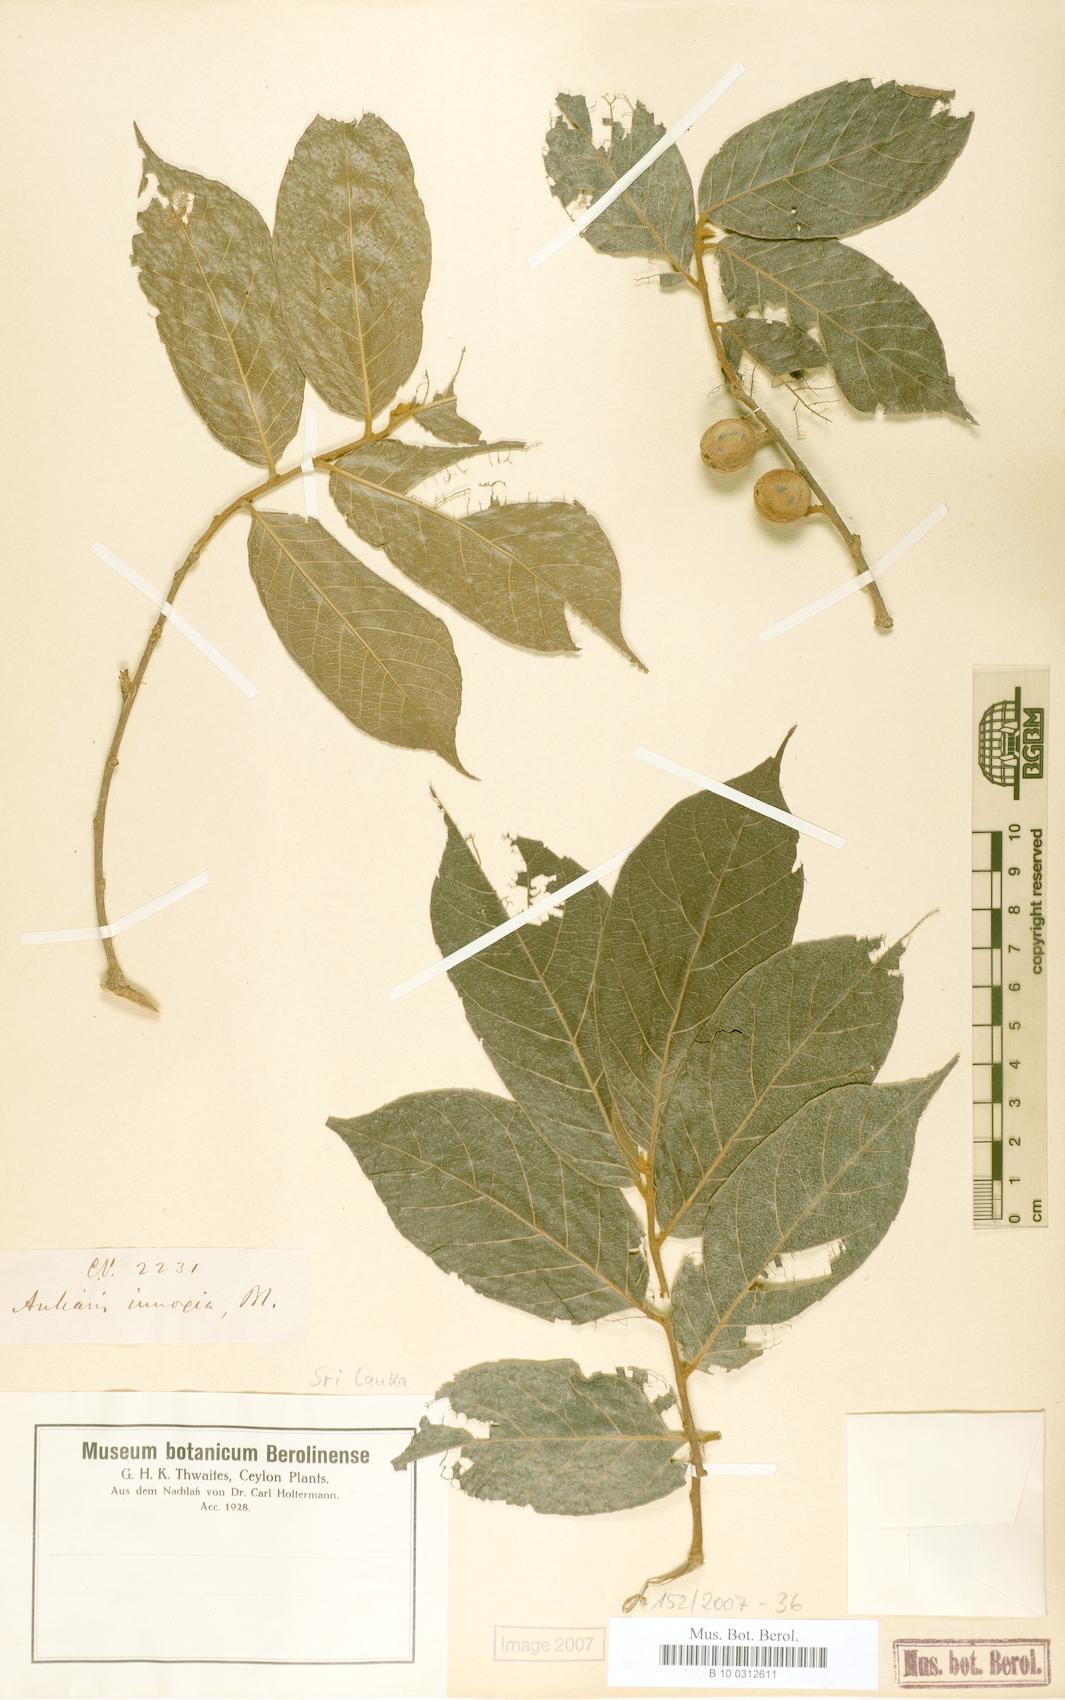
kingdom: Plantae
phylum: Tracheophyta
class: Magnoliopsida
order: Rosales
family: Moraceae
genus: Antiaris
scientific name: Antiaris toxicaria
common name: Sackingtree
